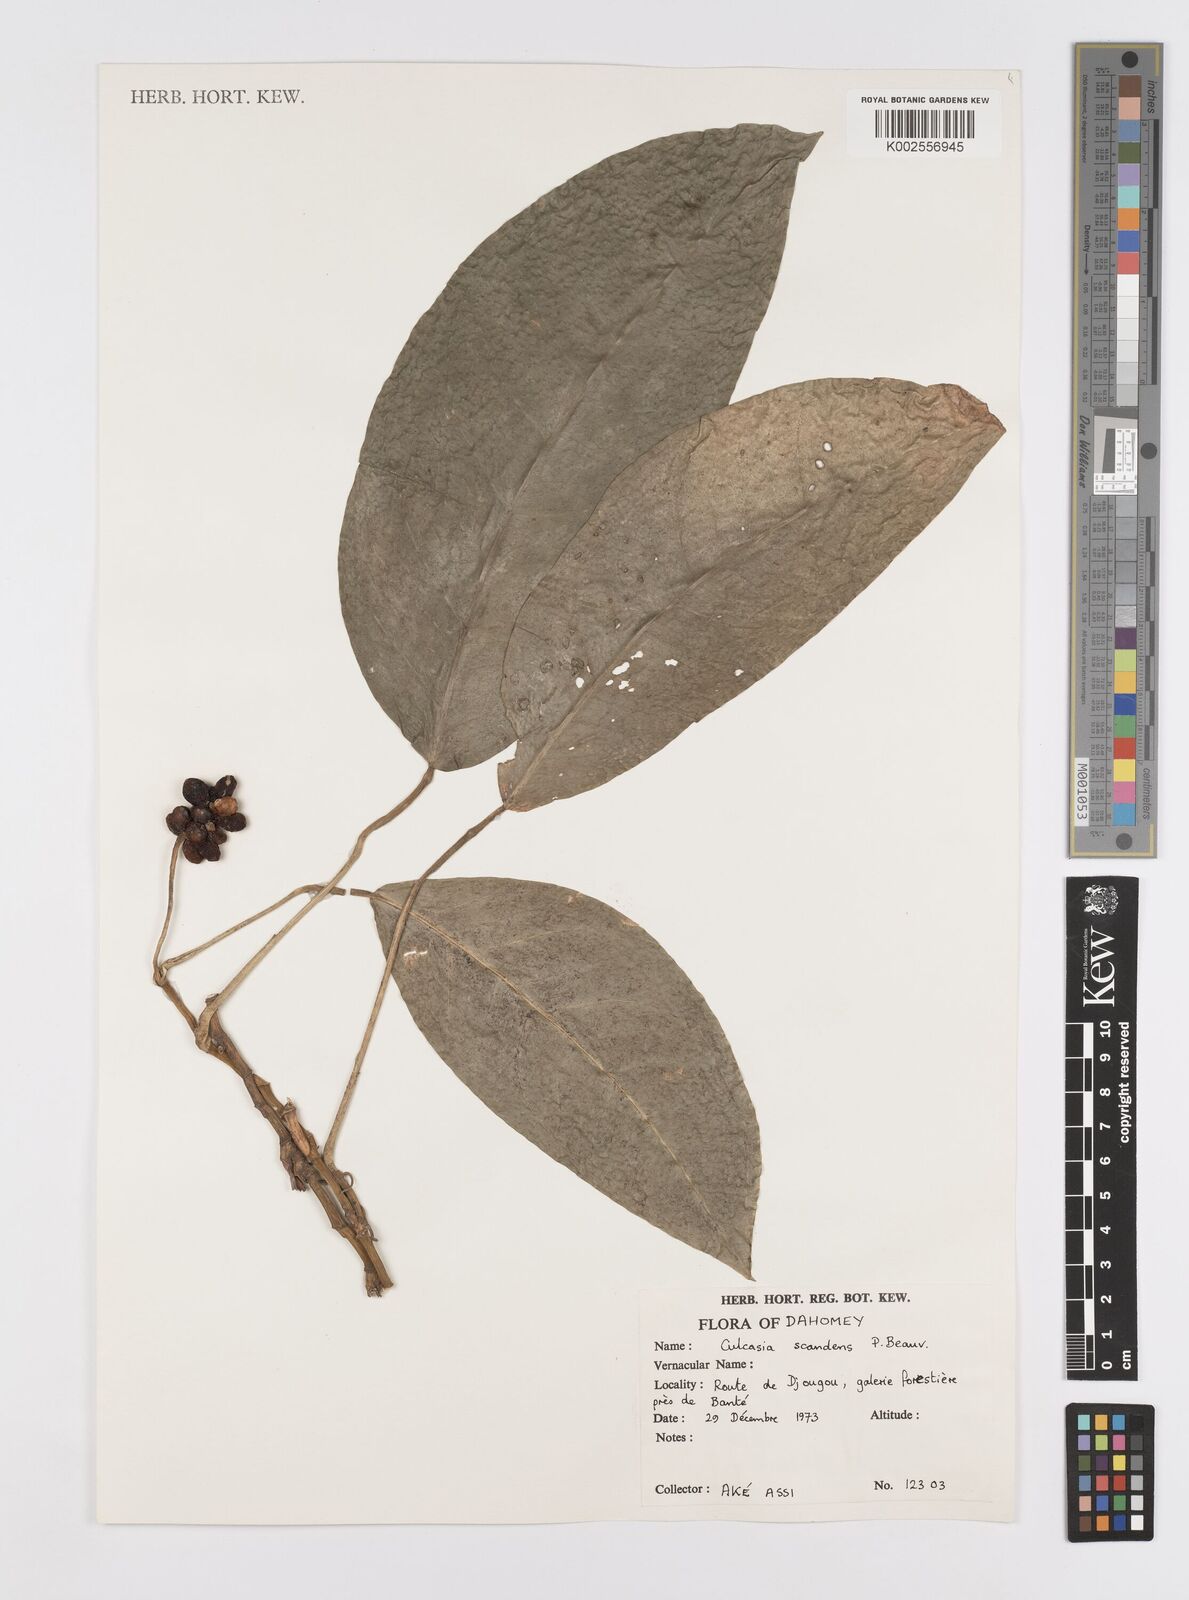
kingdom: Plantae
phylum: Tracheophyta
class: Liliopsida
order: Alismatales
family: Araceae
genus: Culcasia
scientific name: Culcasia scandens
